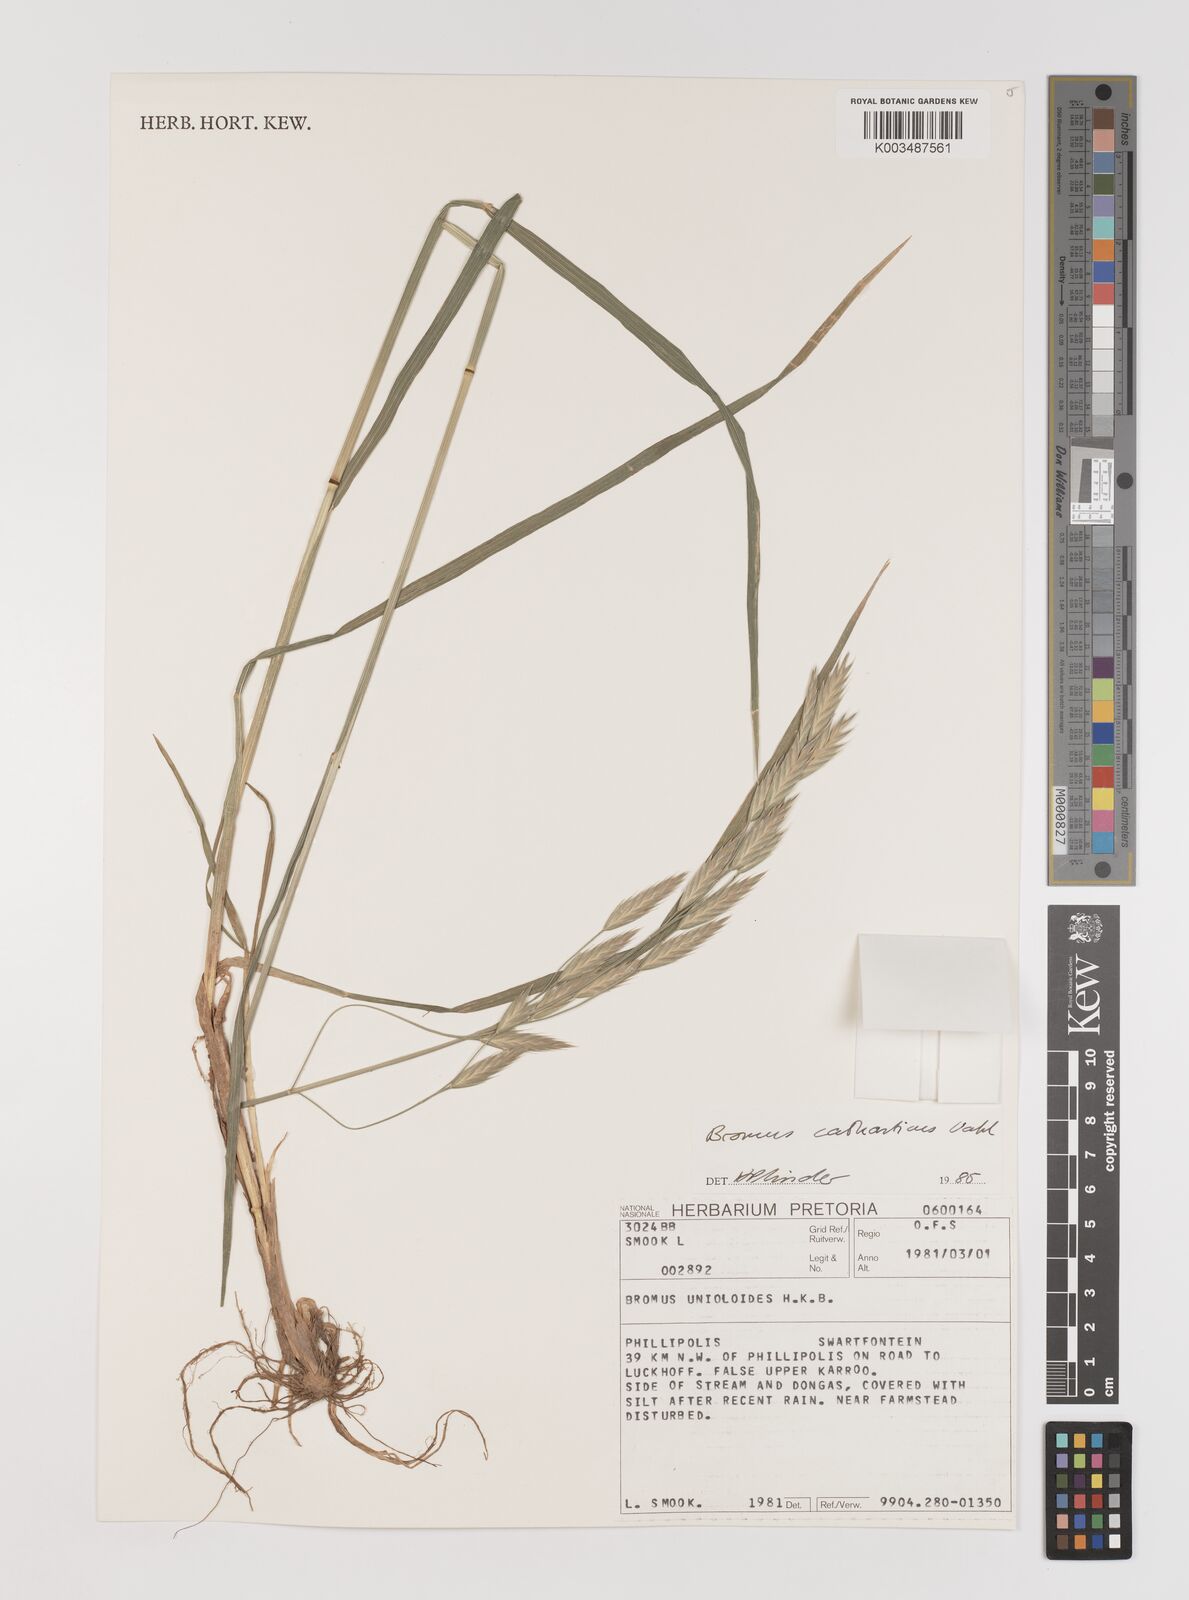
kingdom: Plantae
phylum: Tracheophyta
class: Liliopsida
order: Poales
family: Poaceae
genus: Bromus
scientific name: Bromus catharticus
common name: Rescuegrass
